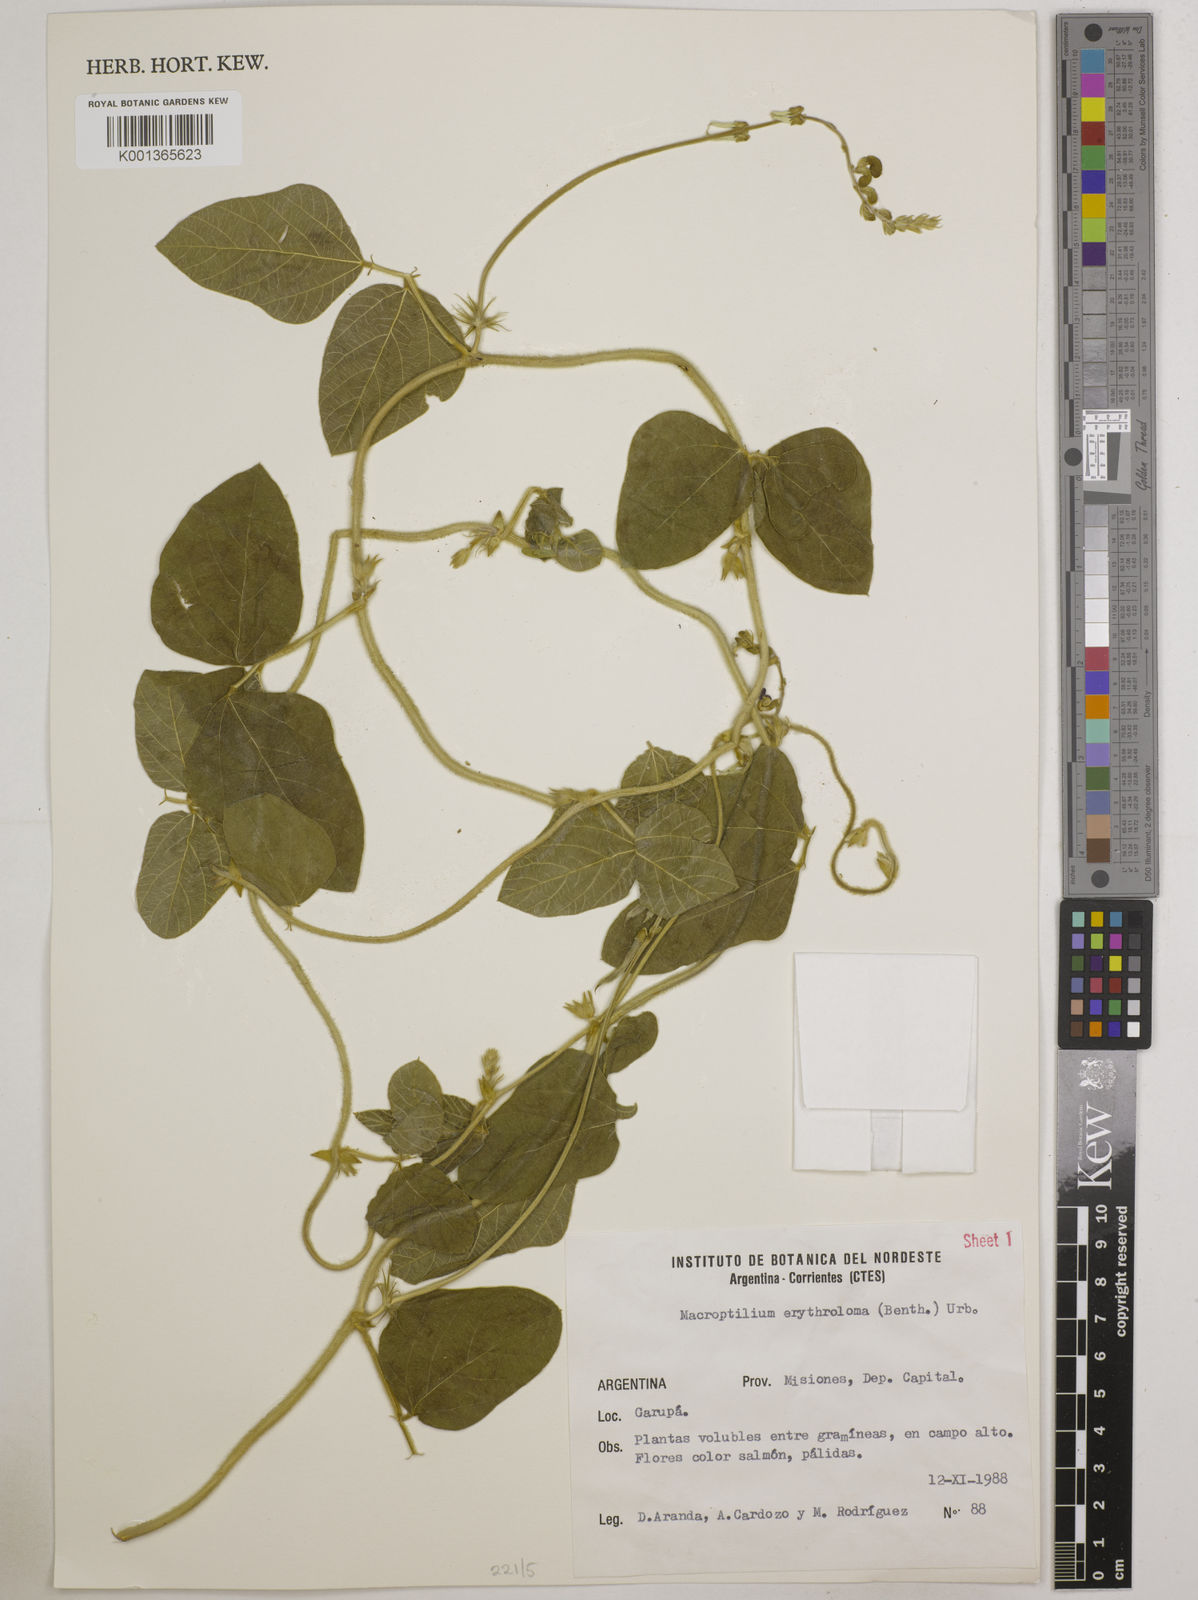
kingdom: Plantae
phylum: Tracheophyta
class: Magnoliopsida
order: Fabales
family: Fabaceae
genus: Macroptilium
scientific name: Macroptilium erythroloma
